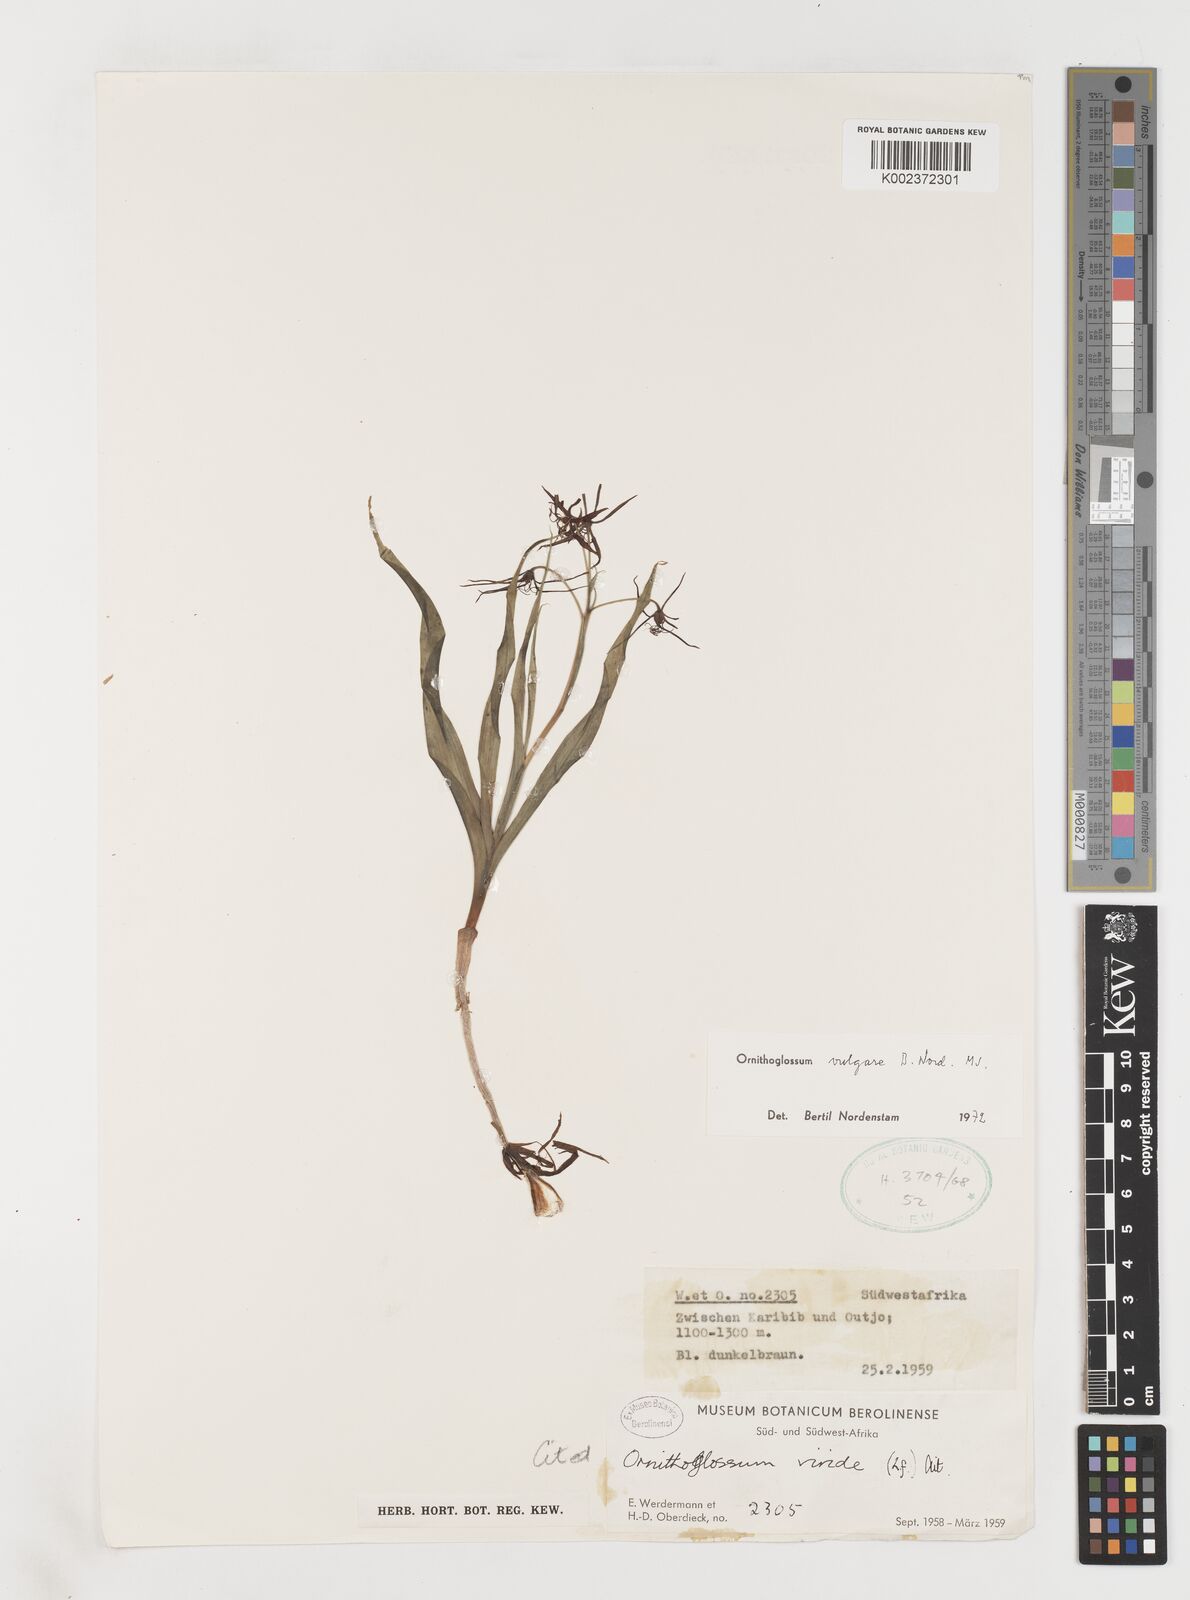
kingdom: Plantae
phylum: Tracheophyta
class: Liliopsida
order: Liliales
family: Colchicaceae
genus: Ornithoglossum
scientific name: Ornithoglossum vulgare
